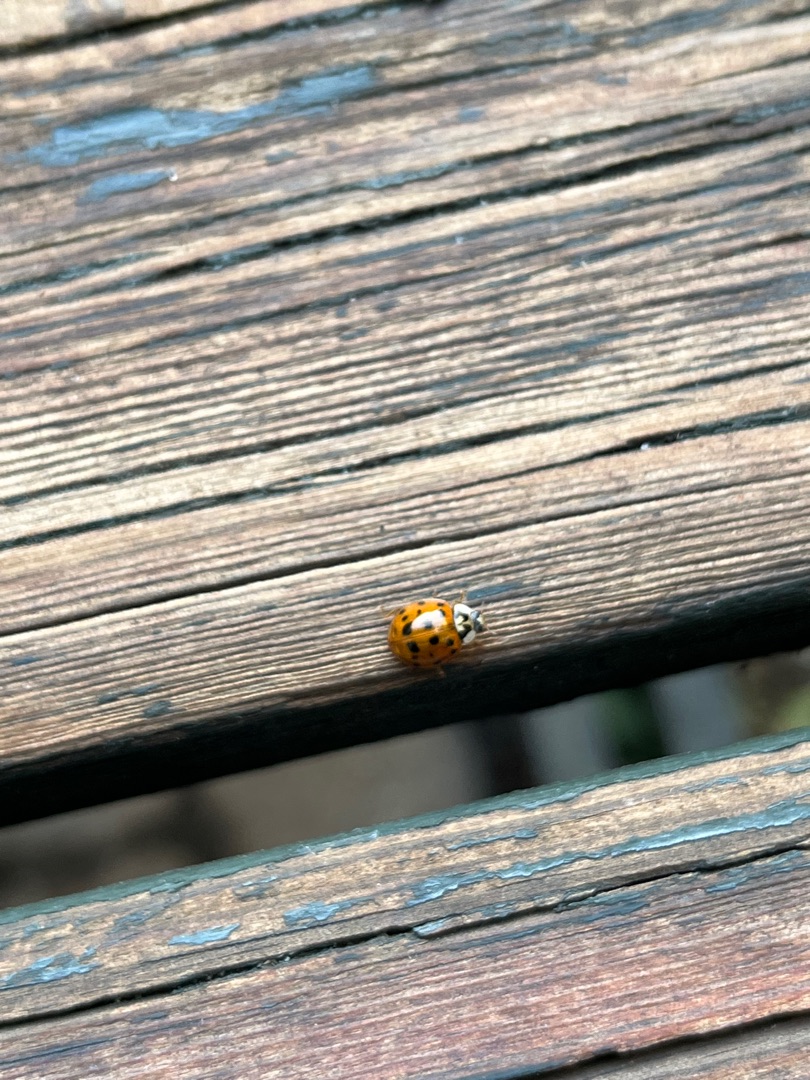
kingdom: Animalia
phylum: Arthropoda
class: Insecta
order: Coleoptera
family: Coccinellidae
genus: Harmonia
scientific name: Harmonia axyridis
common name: Harlekinmariehøne
